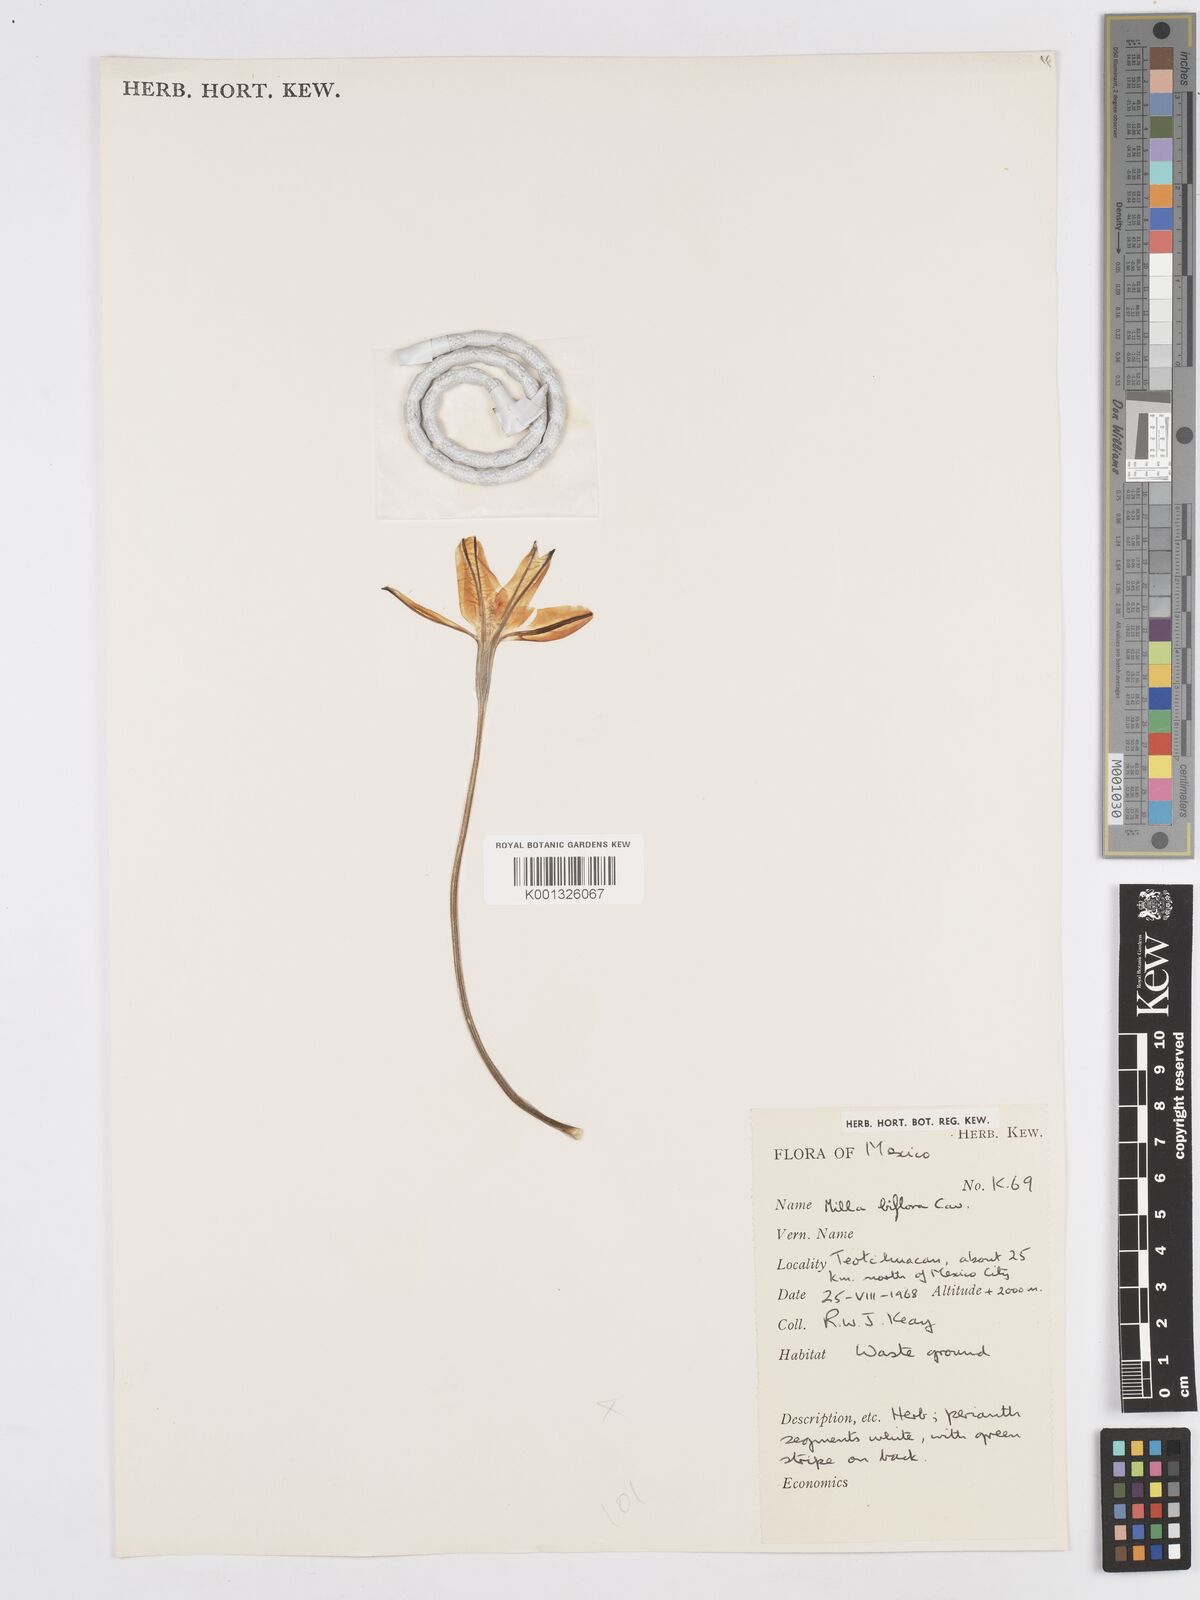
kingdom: Plantae
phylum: Tracheophyta
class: Liliopsida
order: Asparagales
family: Asparagaceae
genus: Milla
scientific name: Milla biflora
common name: Mexican-star
